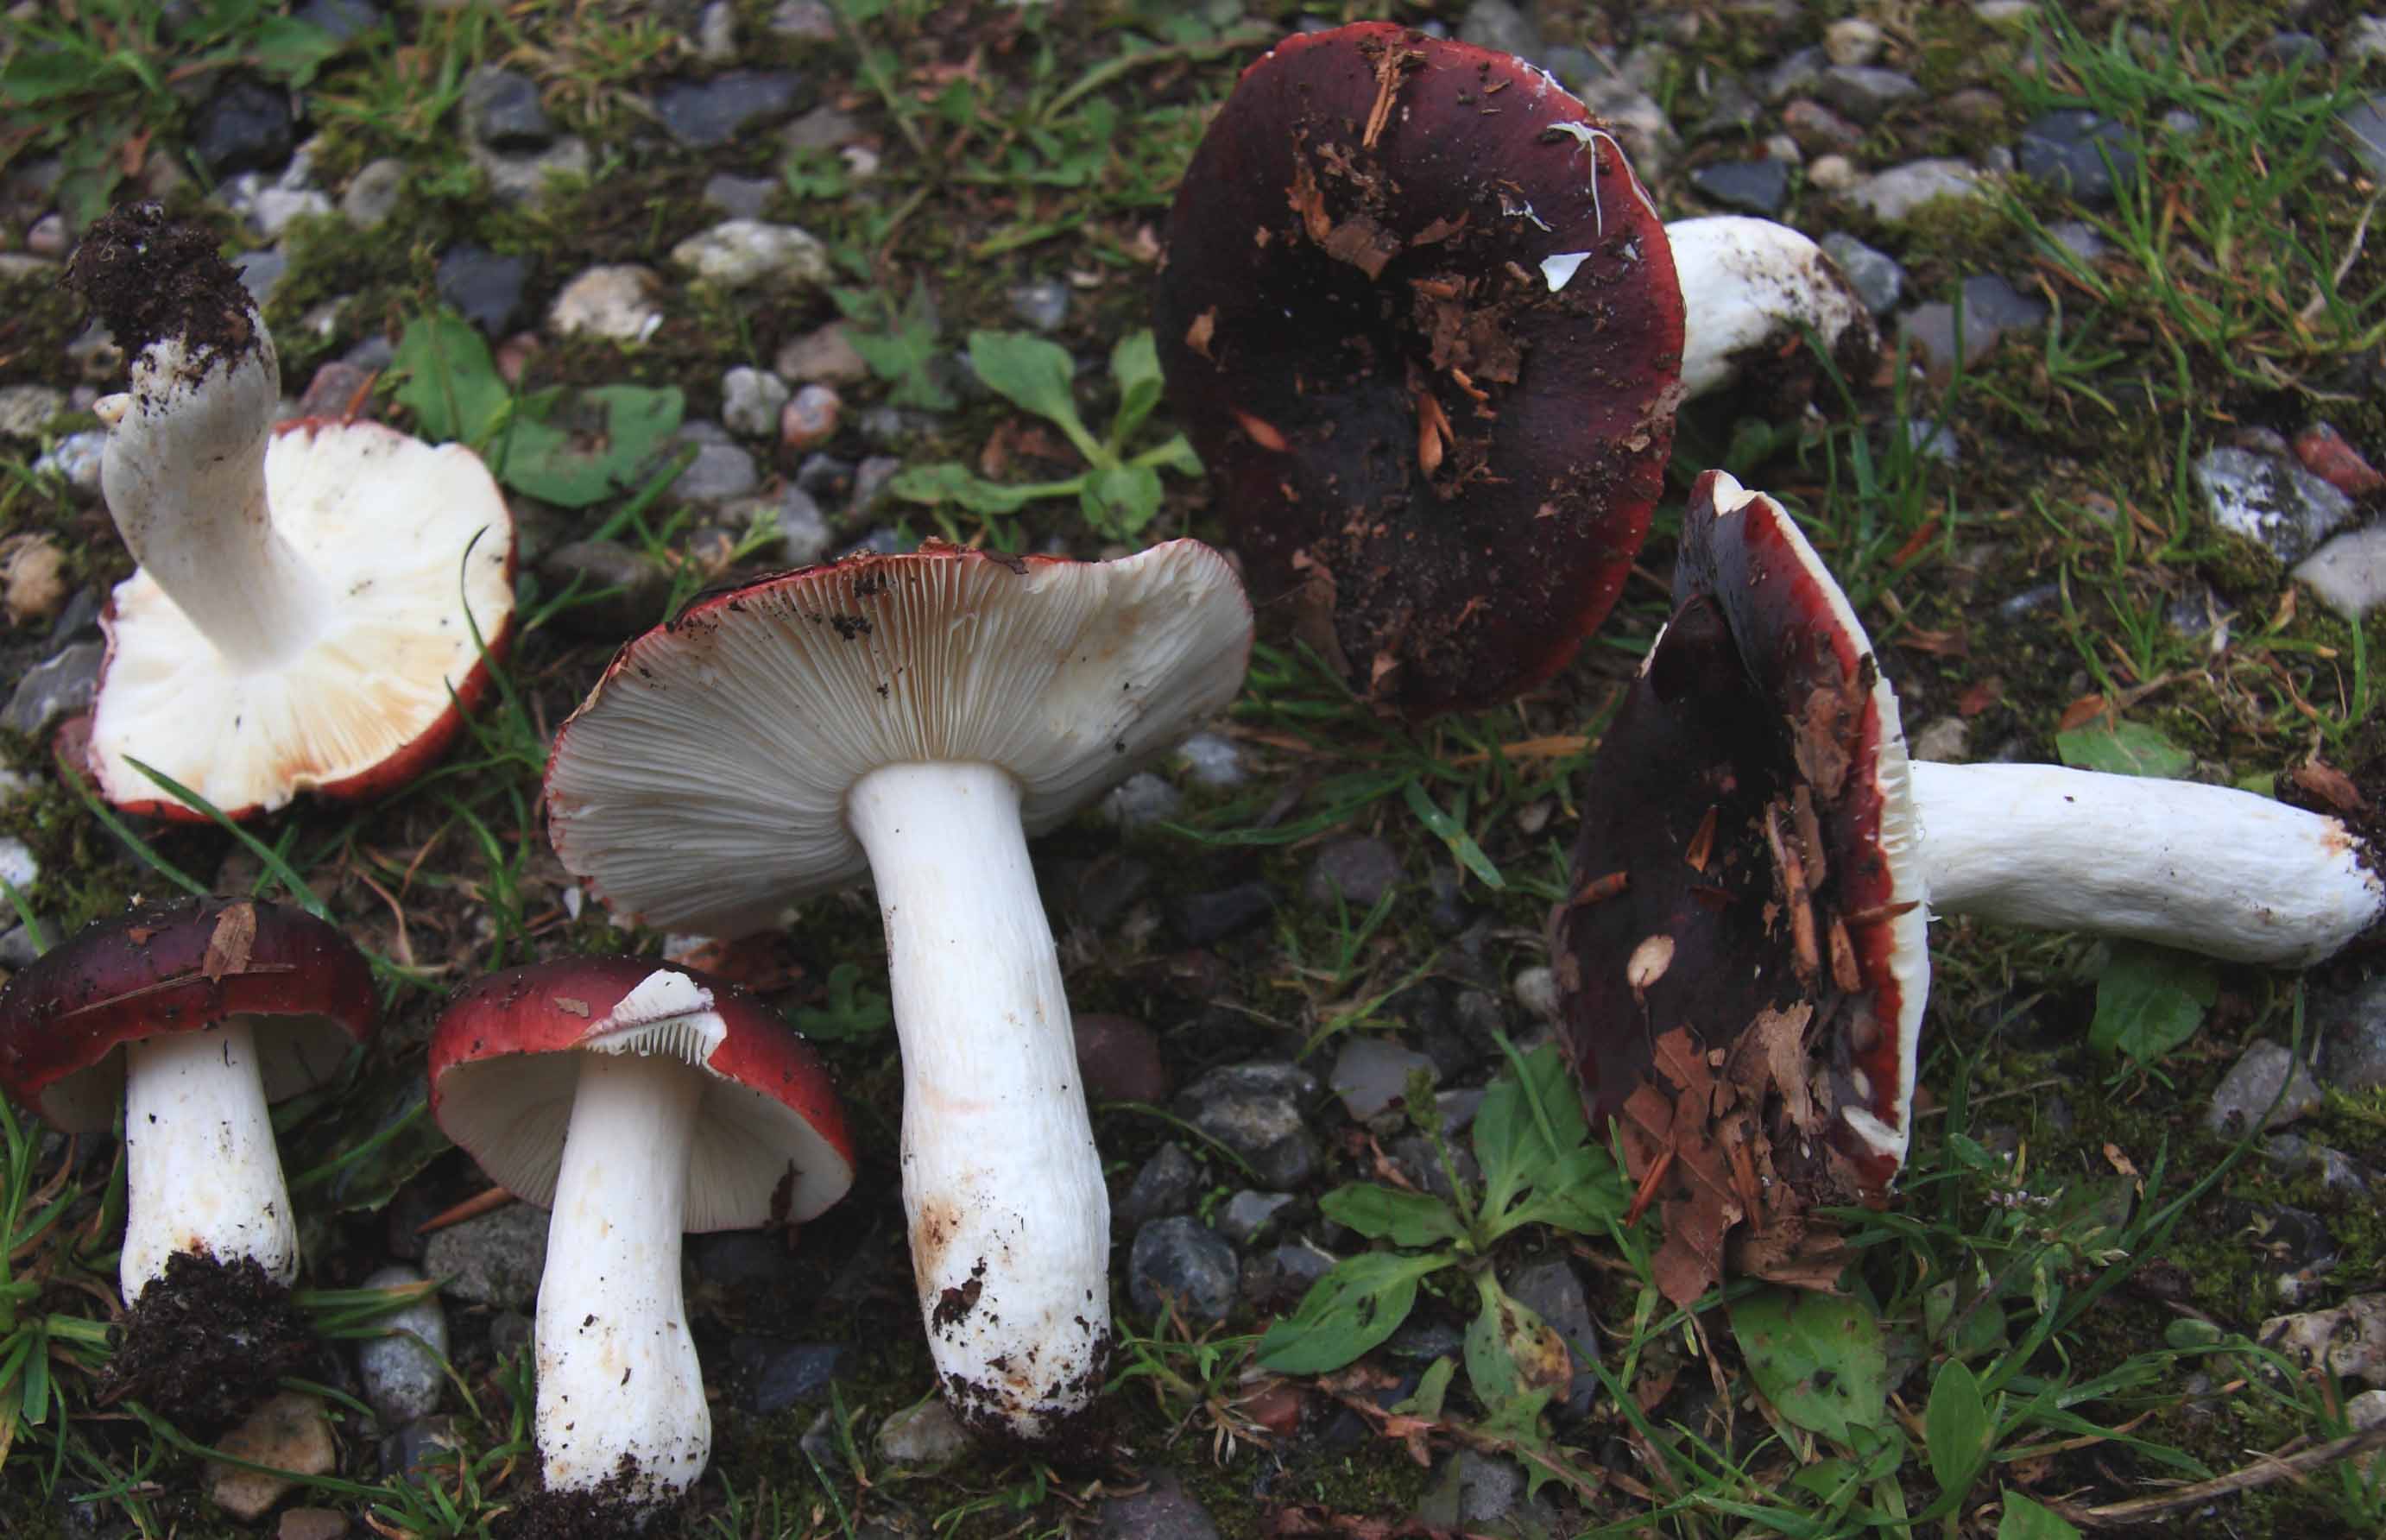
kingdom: Fungi
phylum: Basidiomycota
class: Agaricomycetes
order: Russulales
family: Russulaceae
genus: Russula
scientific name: Russula viscida
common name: knippe-skørhat
